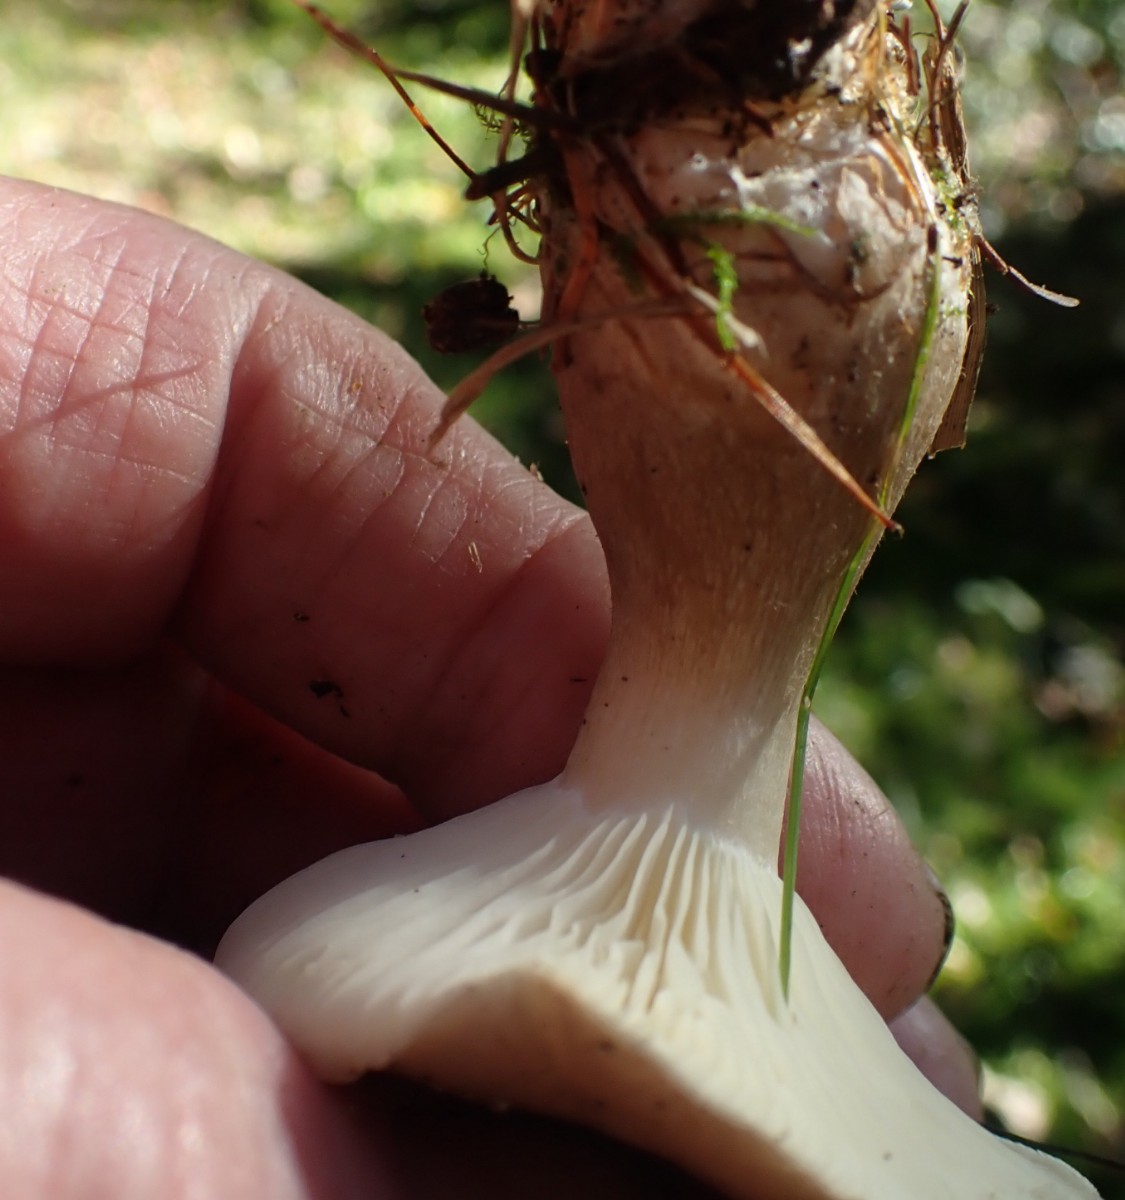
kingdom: Fungi
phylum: Basidiomycota
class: Agaricomycetes
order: Agaricales
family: Hygrophoraceae
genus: Ampulloclitocybe
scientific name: Ampulloclitocybe clavipes
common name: køllefod
